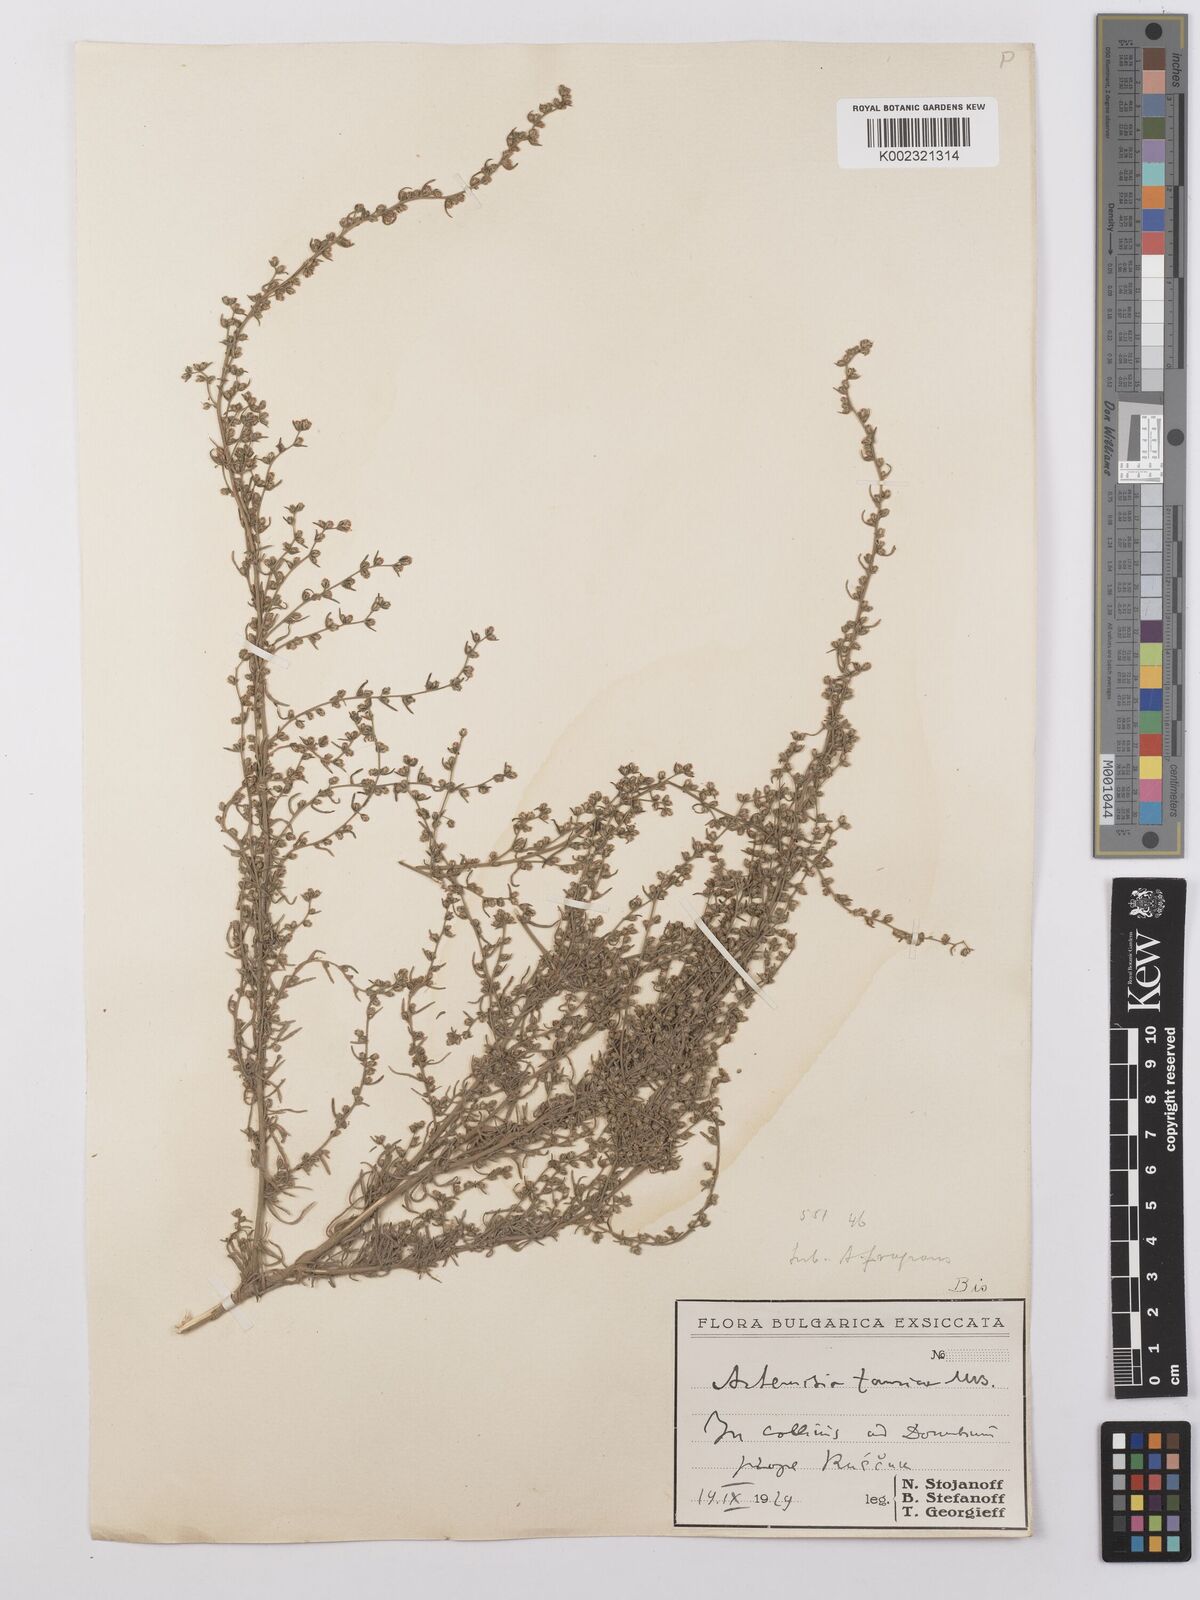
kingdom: Plantae
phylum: Tracheophyta
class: Magnoliopsida
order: Asterales
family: Asteraceae
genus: Artemisia
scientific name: Artemisia taurica
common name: Tauric wormwood
